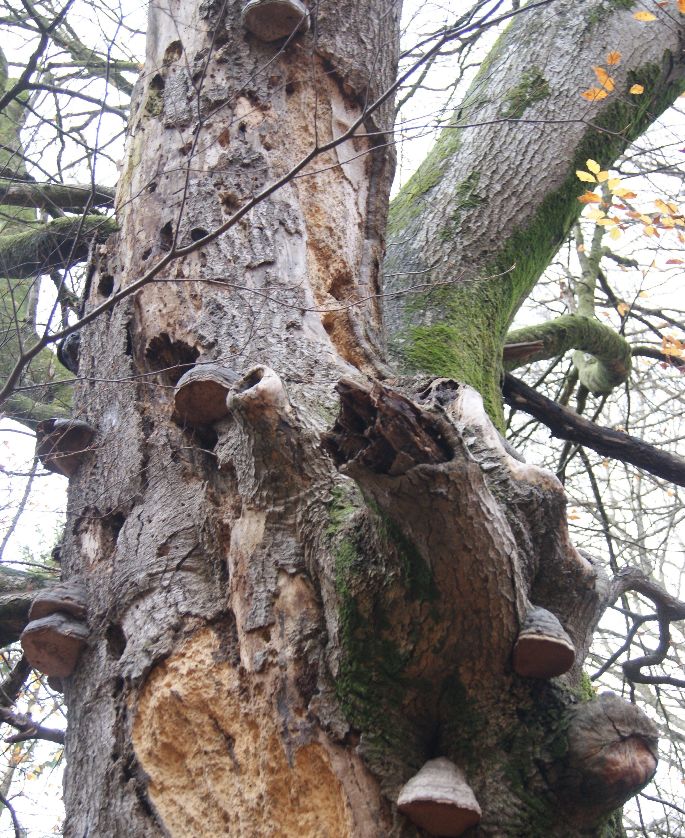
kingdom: Fungi
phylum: Basidiomycota
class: Agaricomycetes
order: Polyporales
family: Polyporaceae
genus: Fomes
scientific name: Fomes fomentarius
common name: tøndersvamp
